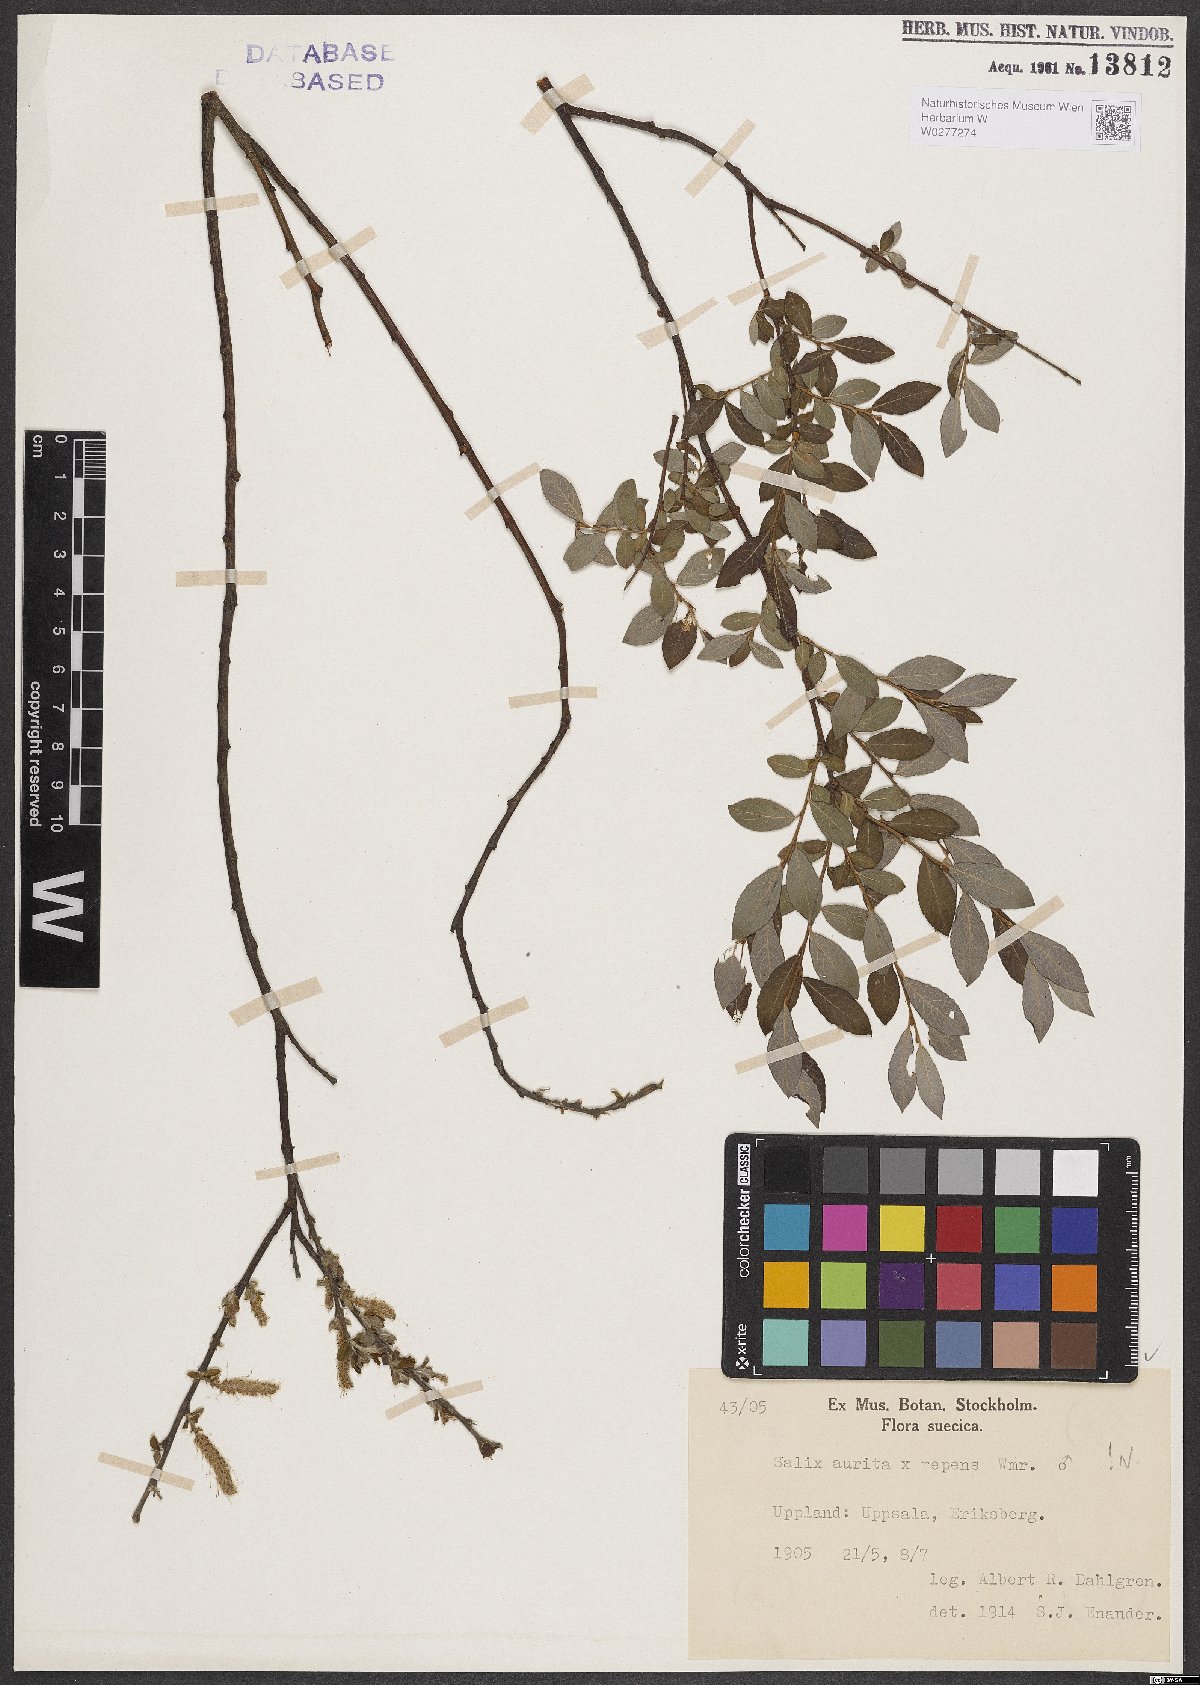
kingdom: Plantae
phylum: Tracheophyta
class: Magnoliopsida
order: Malpighiales
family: Salicaceae
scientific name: Salicaceae
